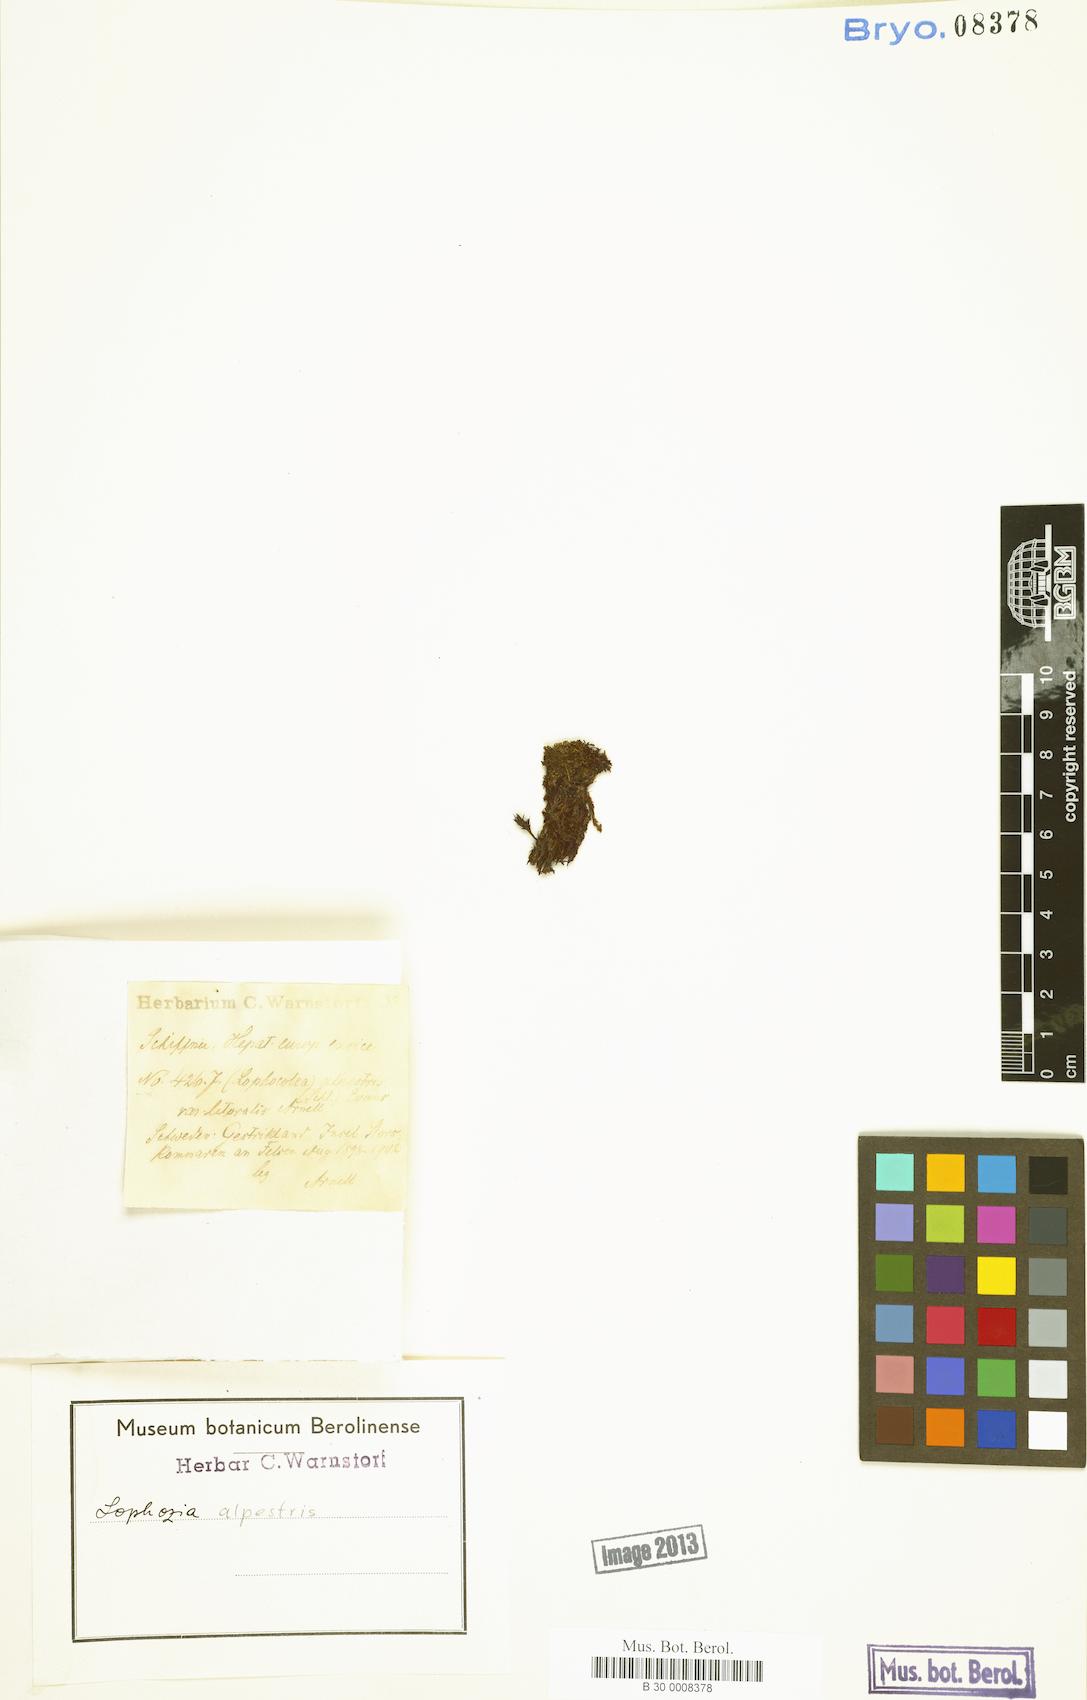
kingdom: Plantae
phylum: Marchantiophyta
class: Jungermanniopsida
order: Jungermanniales
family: Jungermanniaceae
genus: Mesoptychia
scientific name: Mesoptychia collaris
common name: Collared notchwort
